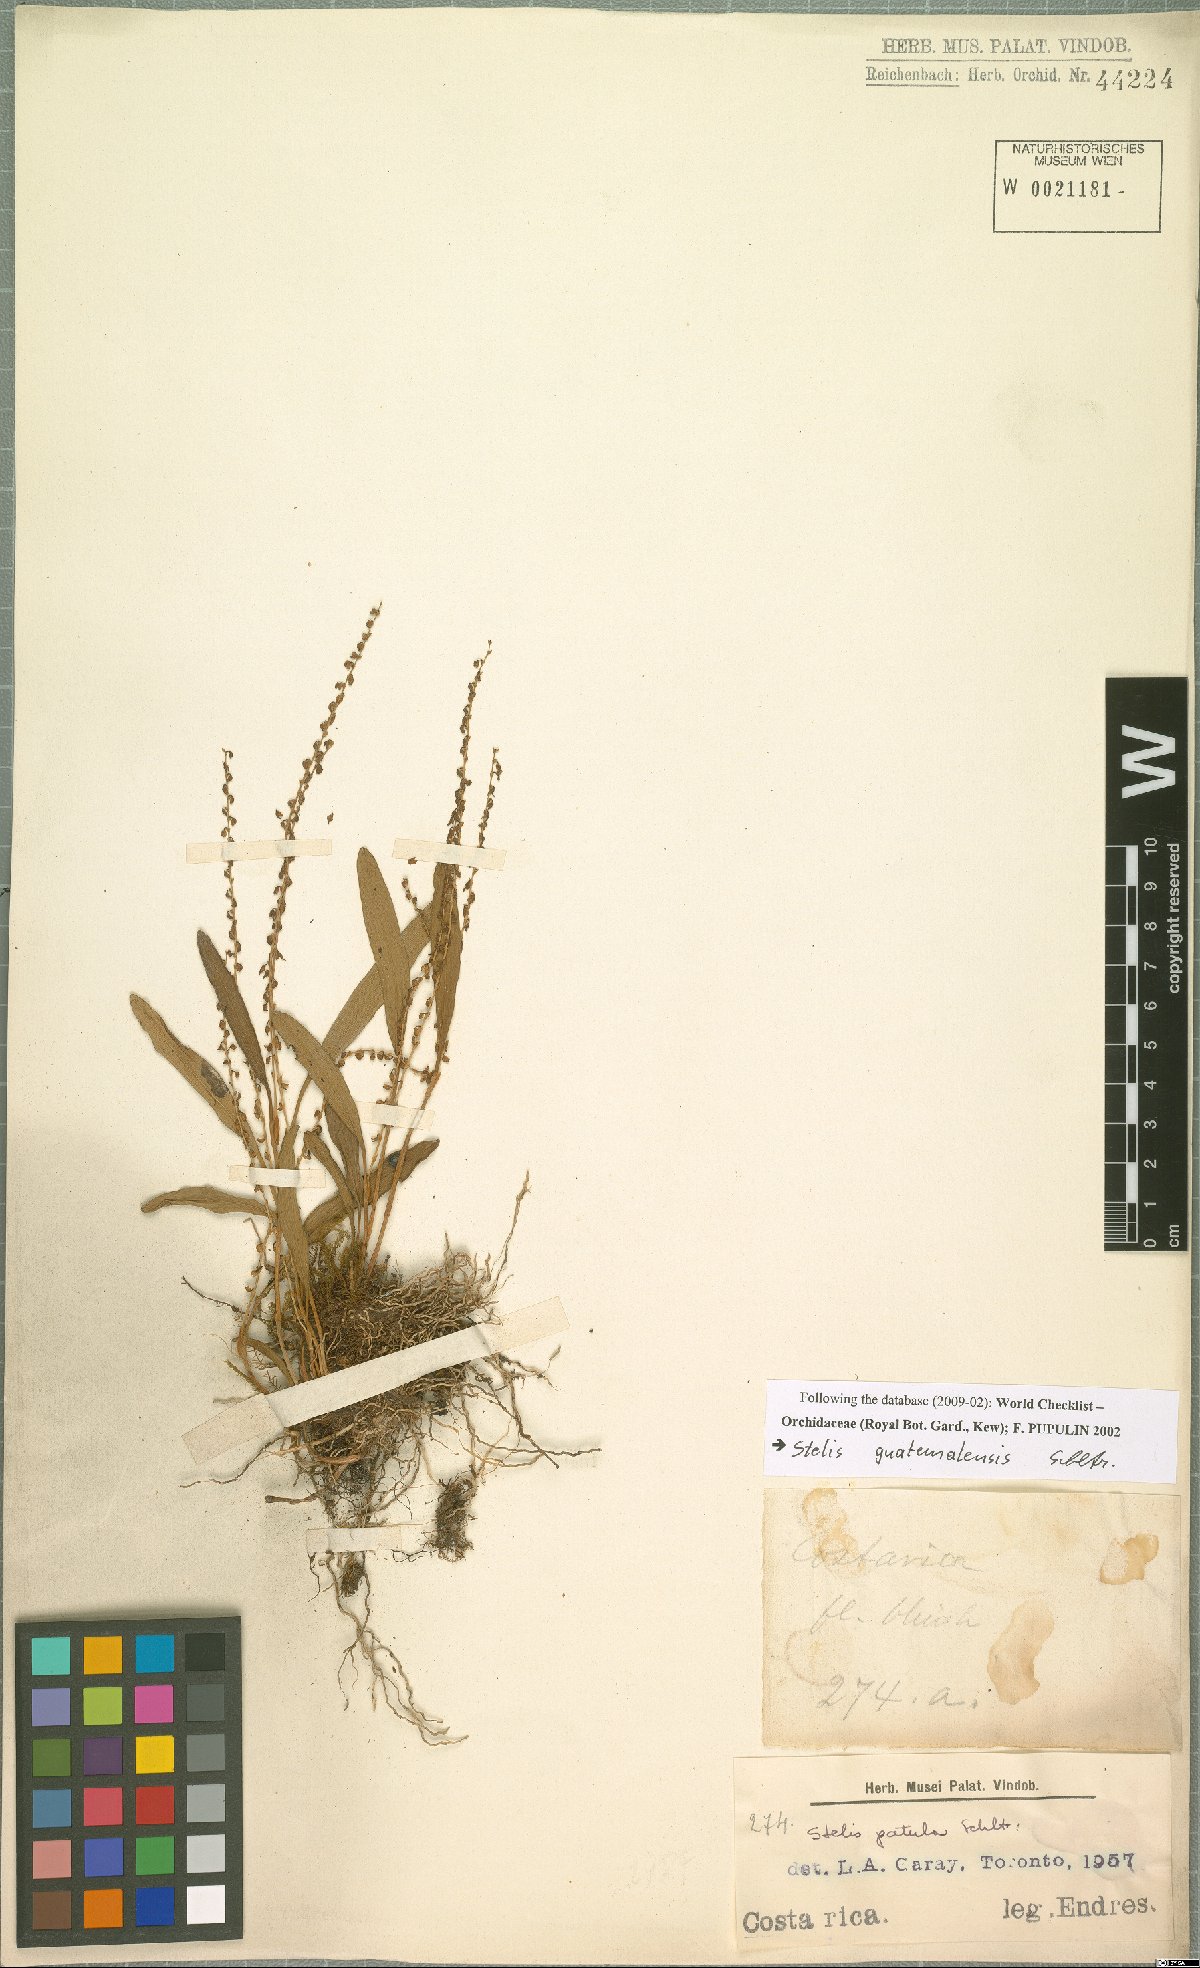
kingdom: Plantae
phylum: Tracheophyta
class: Liliopsida
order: Asparagales
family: Orchidaceae
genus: Stelis
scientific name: Stelis pardipes
